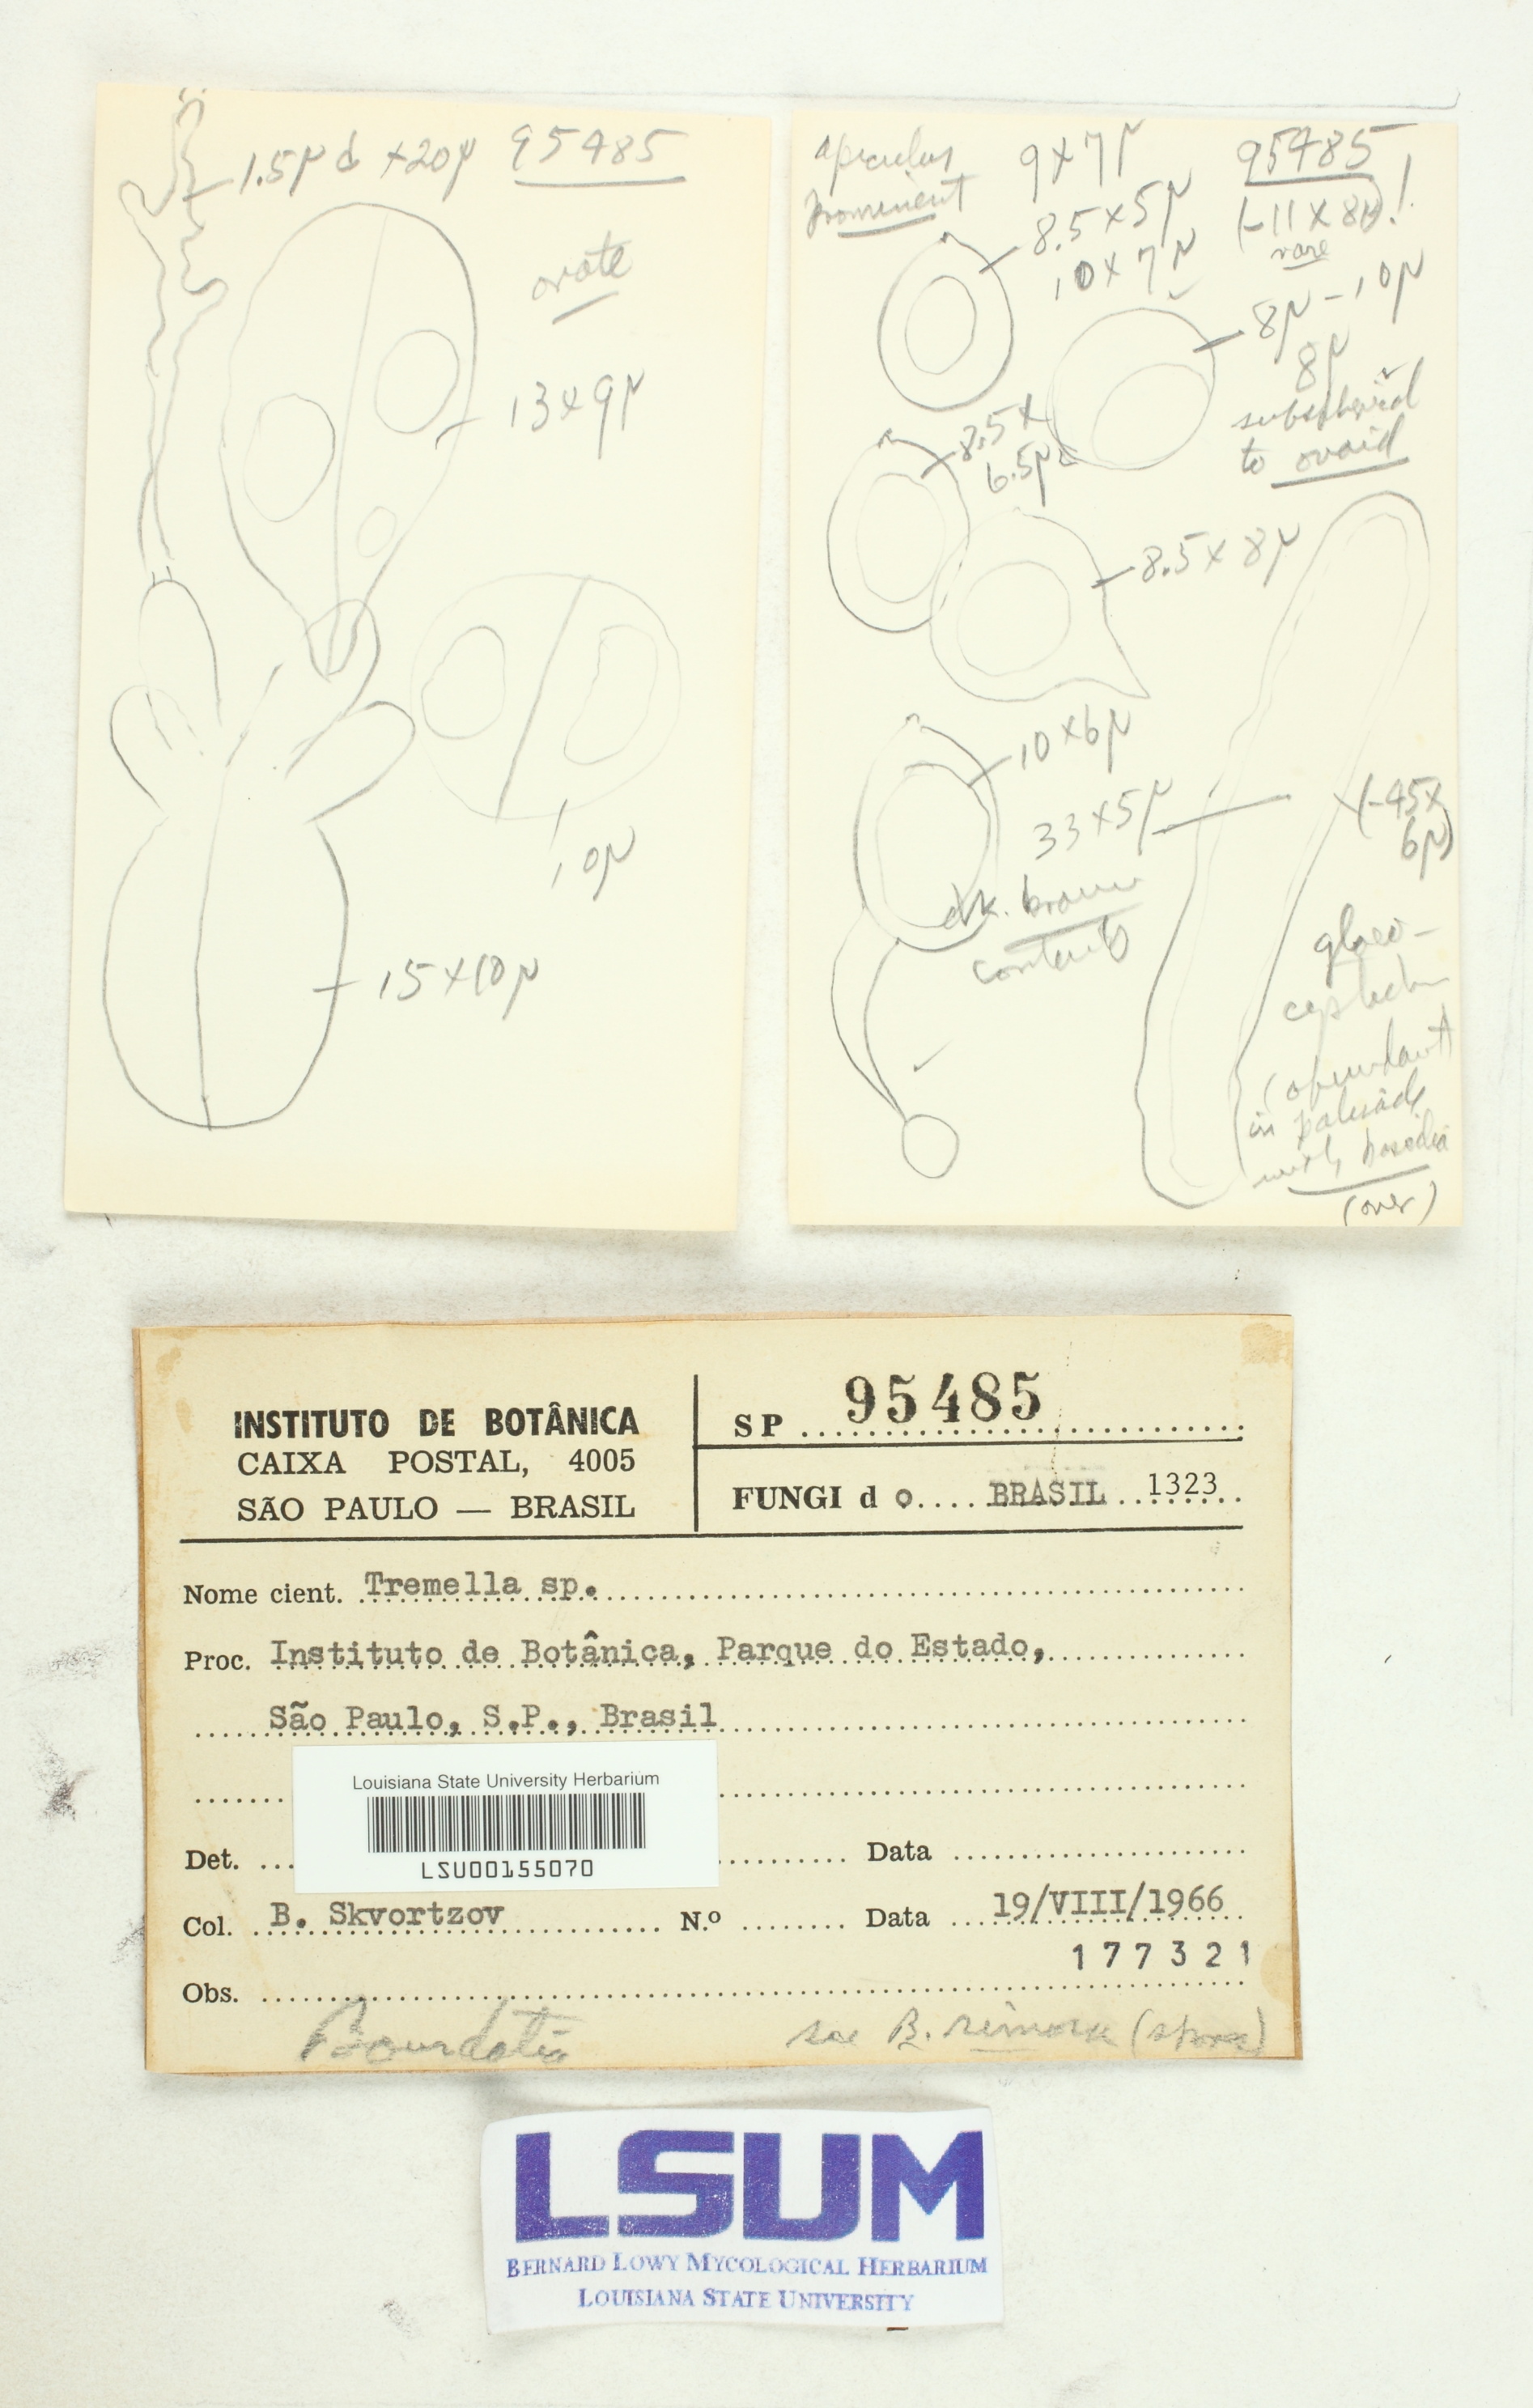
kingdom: Fungi
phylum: Basidiomycota
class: Tremellomycetes
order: Tremellales
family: Tremellaceae
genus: Tremella
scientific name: Tremella
